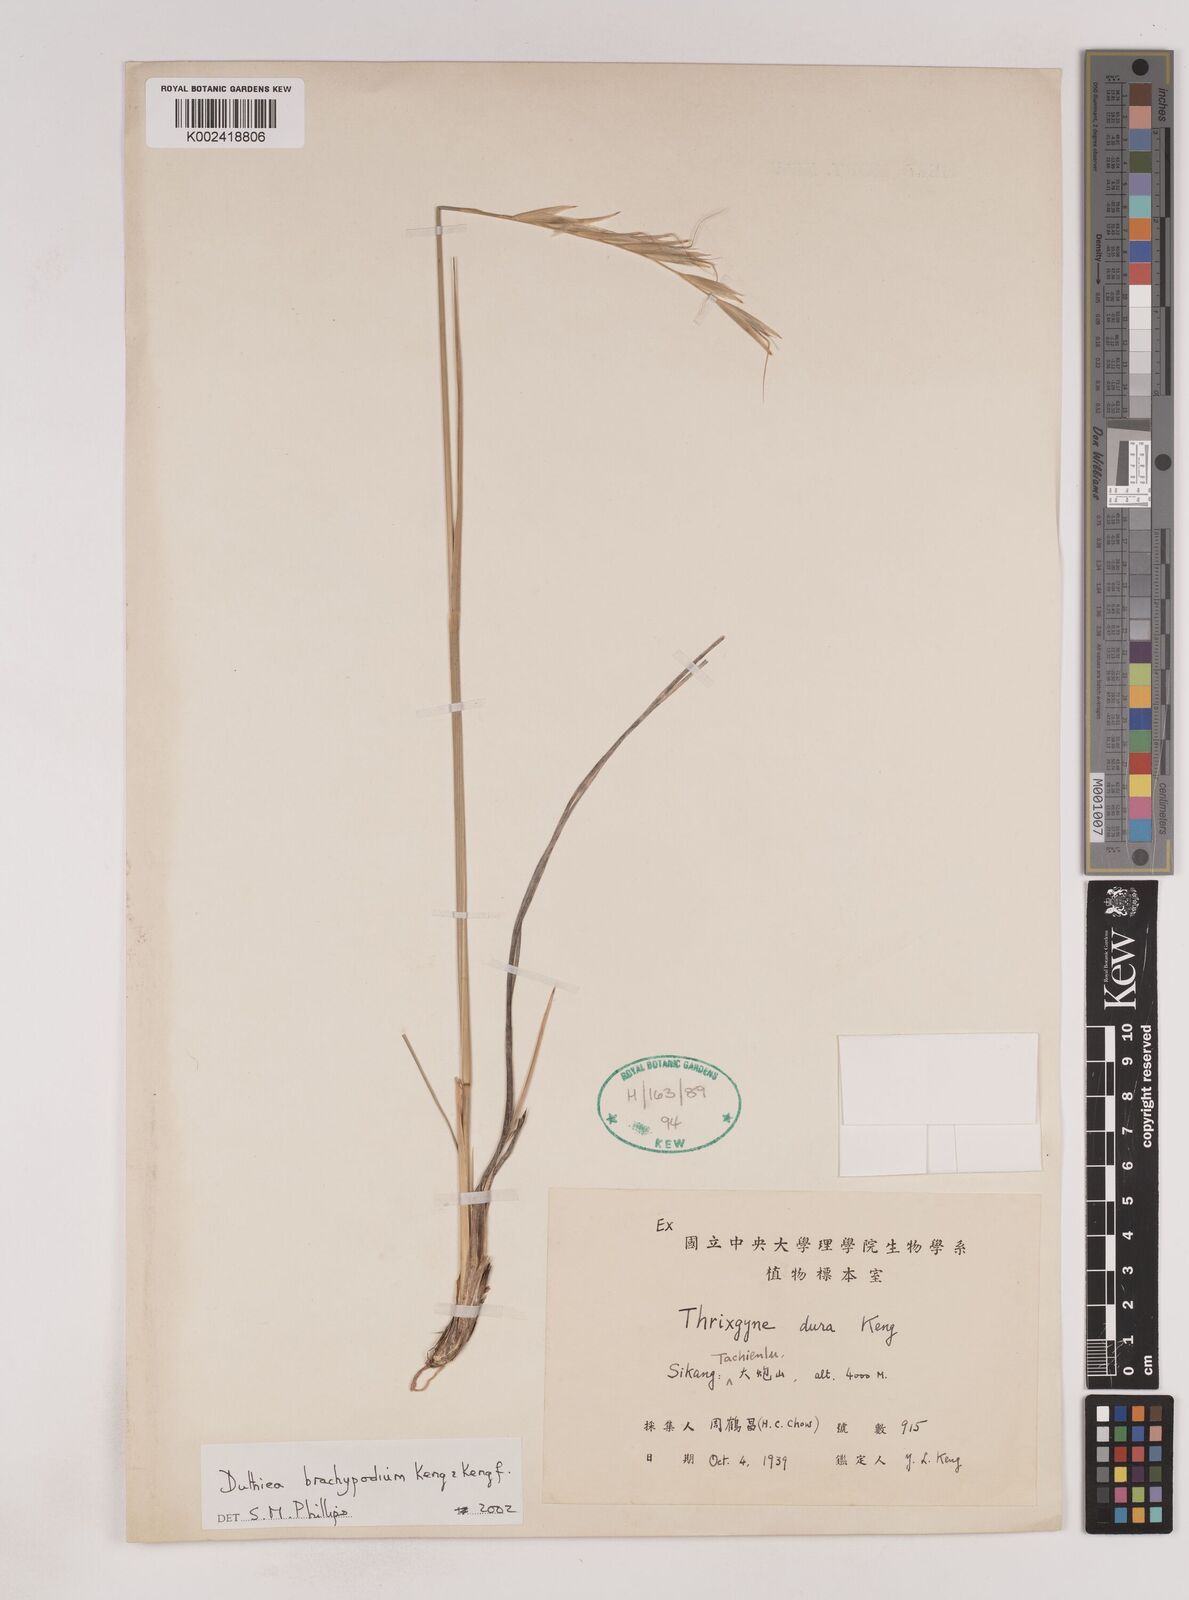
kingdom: Plantae
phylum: Tracheophyta
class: Liliopsida
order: Poales
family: Poaceae
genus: Duthiea
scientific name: Duthiea brachypodium
